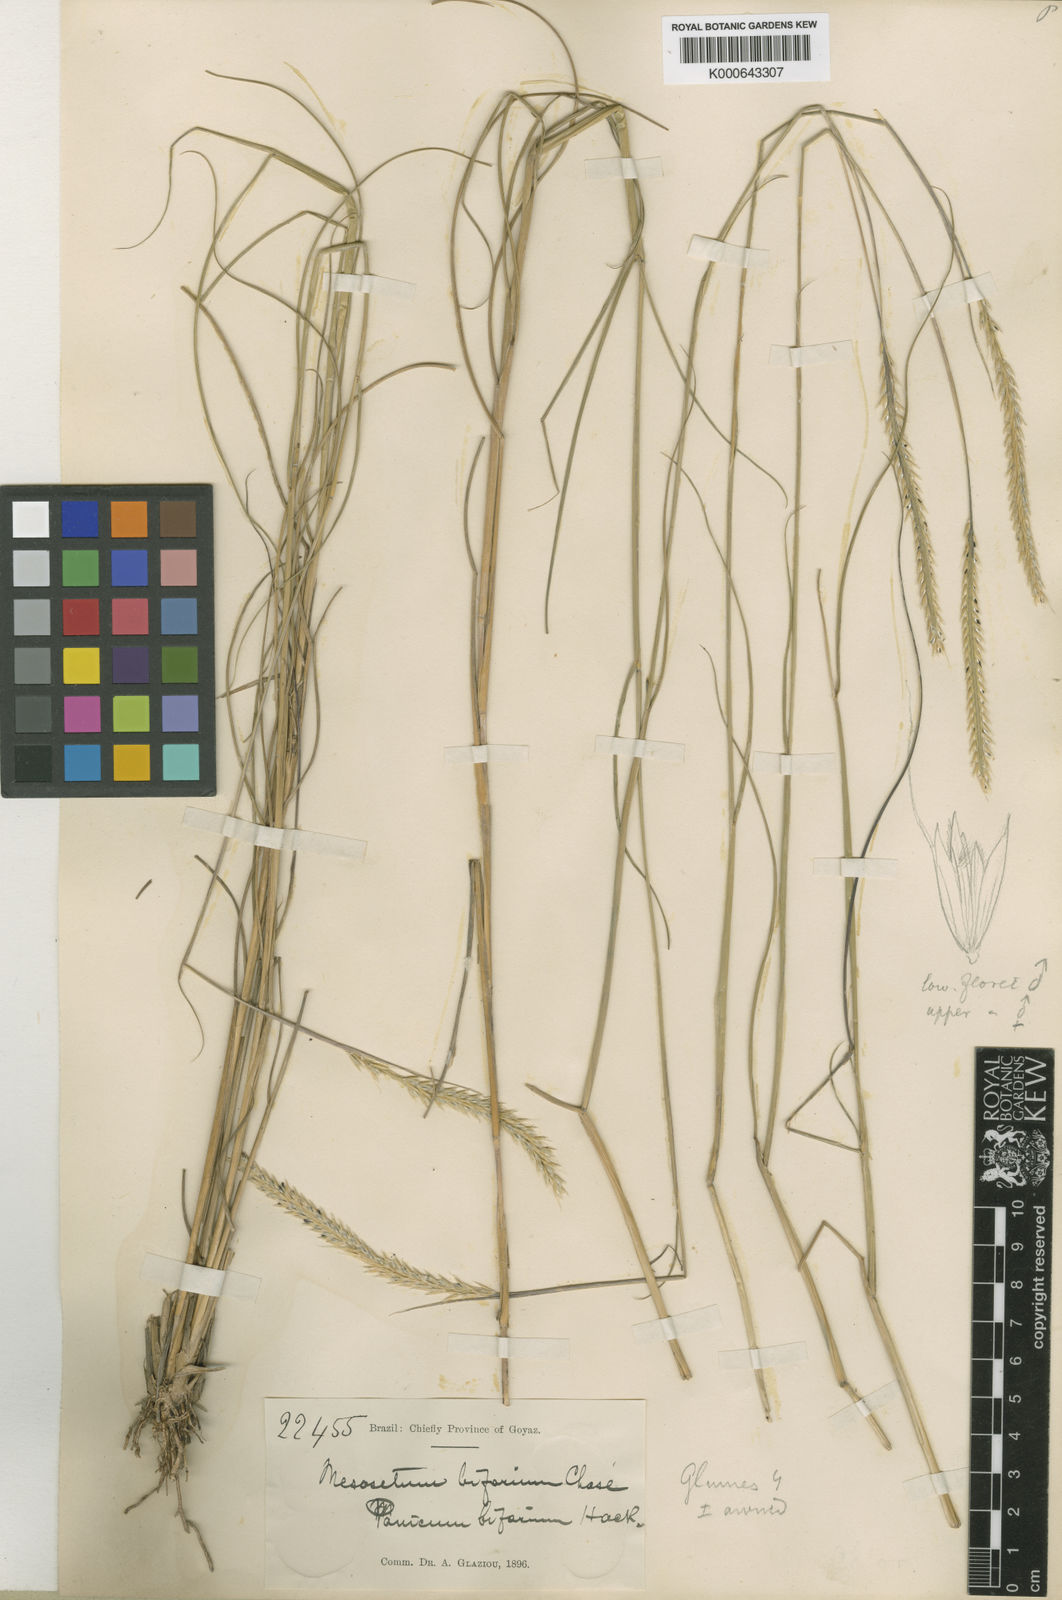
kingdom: Plantae
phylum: Tracheophyta
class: Liliopsida
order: Poales
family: Poaceae
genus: Mesosetum
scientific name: Mesosetum bifarium
